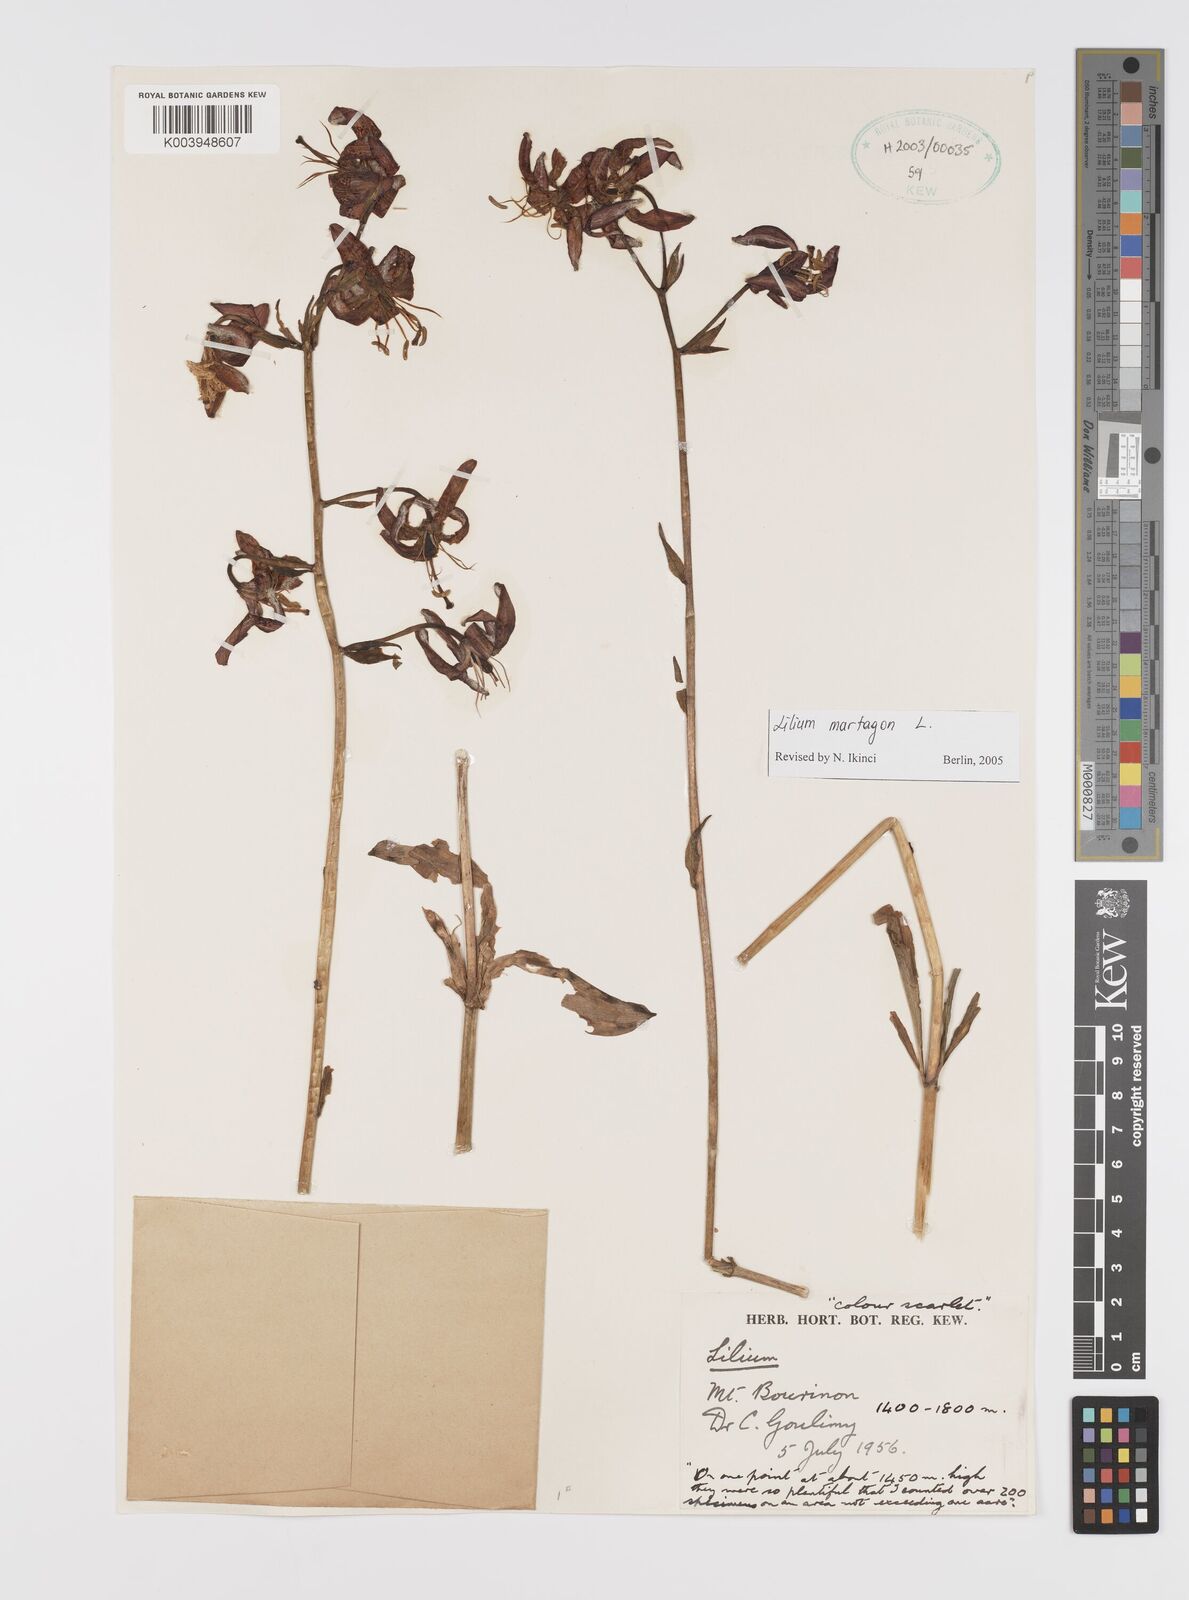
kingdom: Plantae
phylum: Tracheophyta
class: Liliopsida
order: Liliales
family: Liliaceae
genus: Lilium
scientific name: Lilium martagon
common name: Martagon lily
